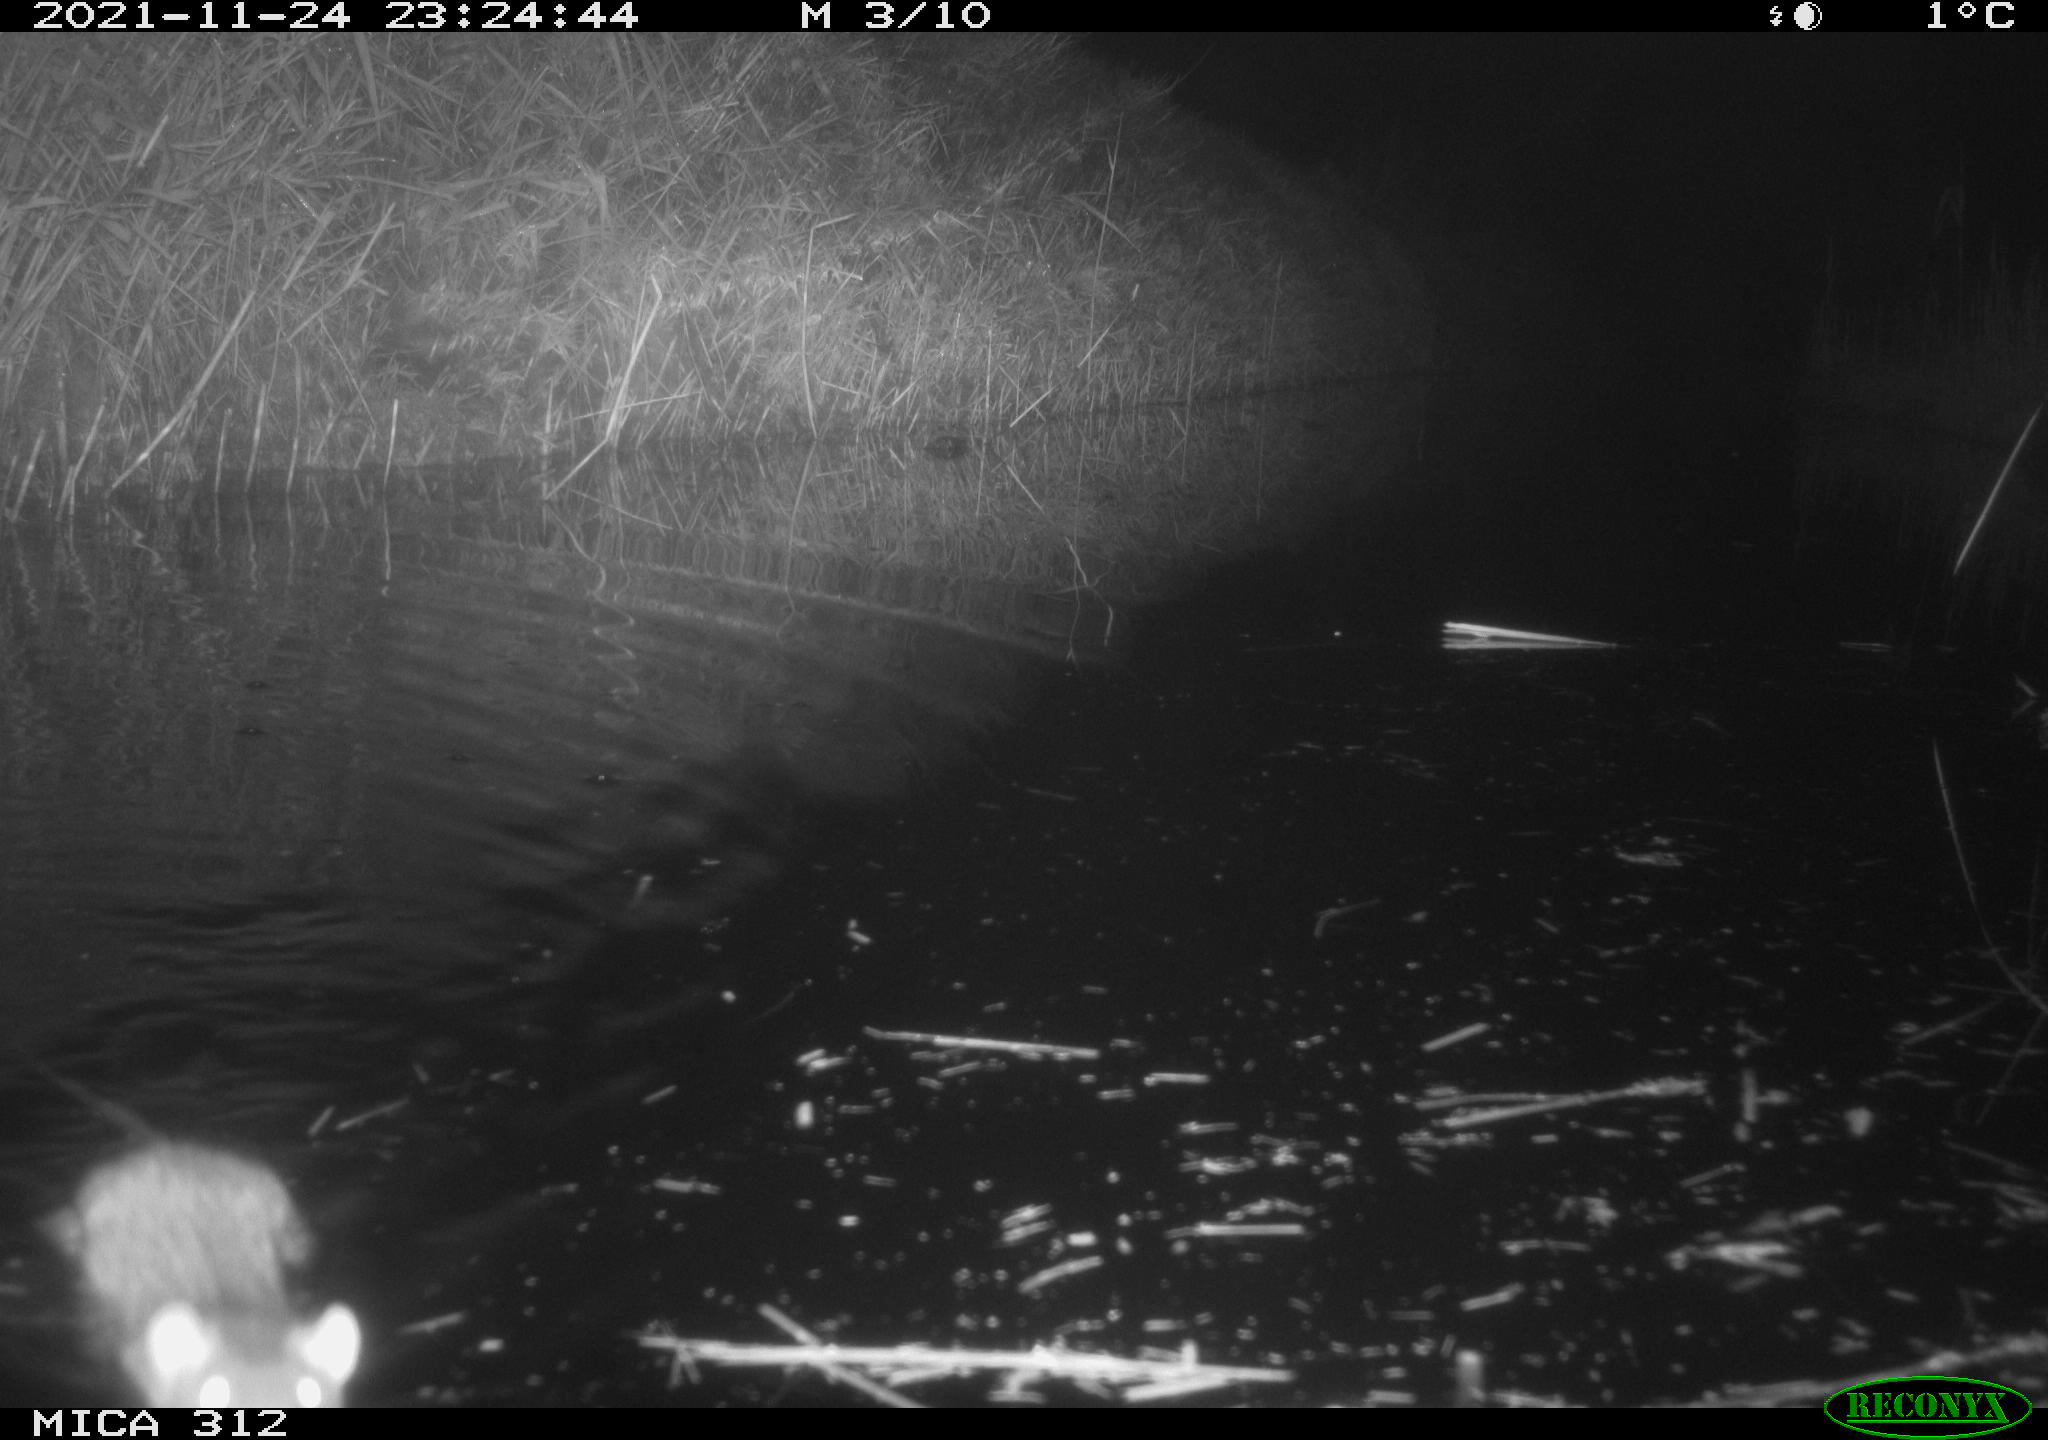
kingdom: Animalia
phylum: Chordata
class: Mammalia
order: Rodentia
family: Muridae
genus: Rattus
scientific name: Rattus norvegicus
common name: Brown rat
